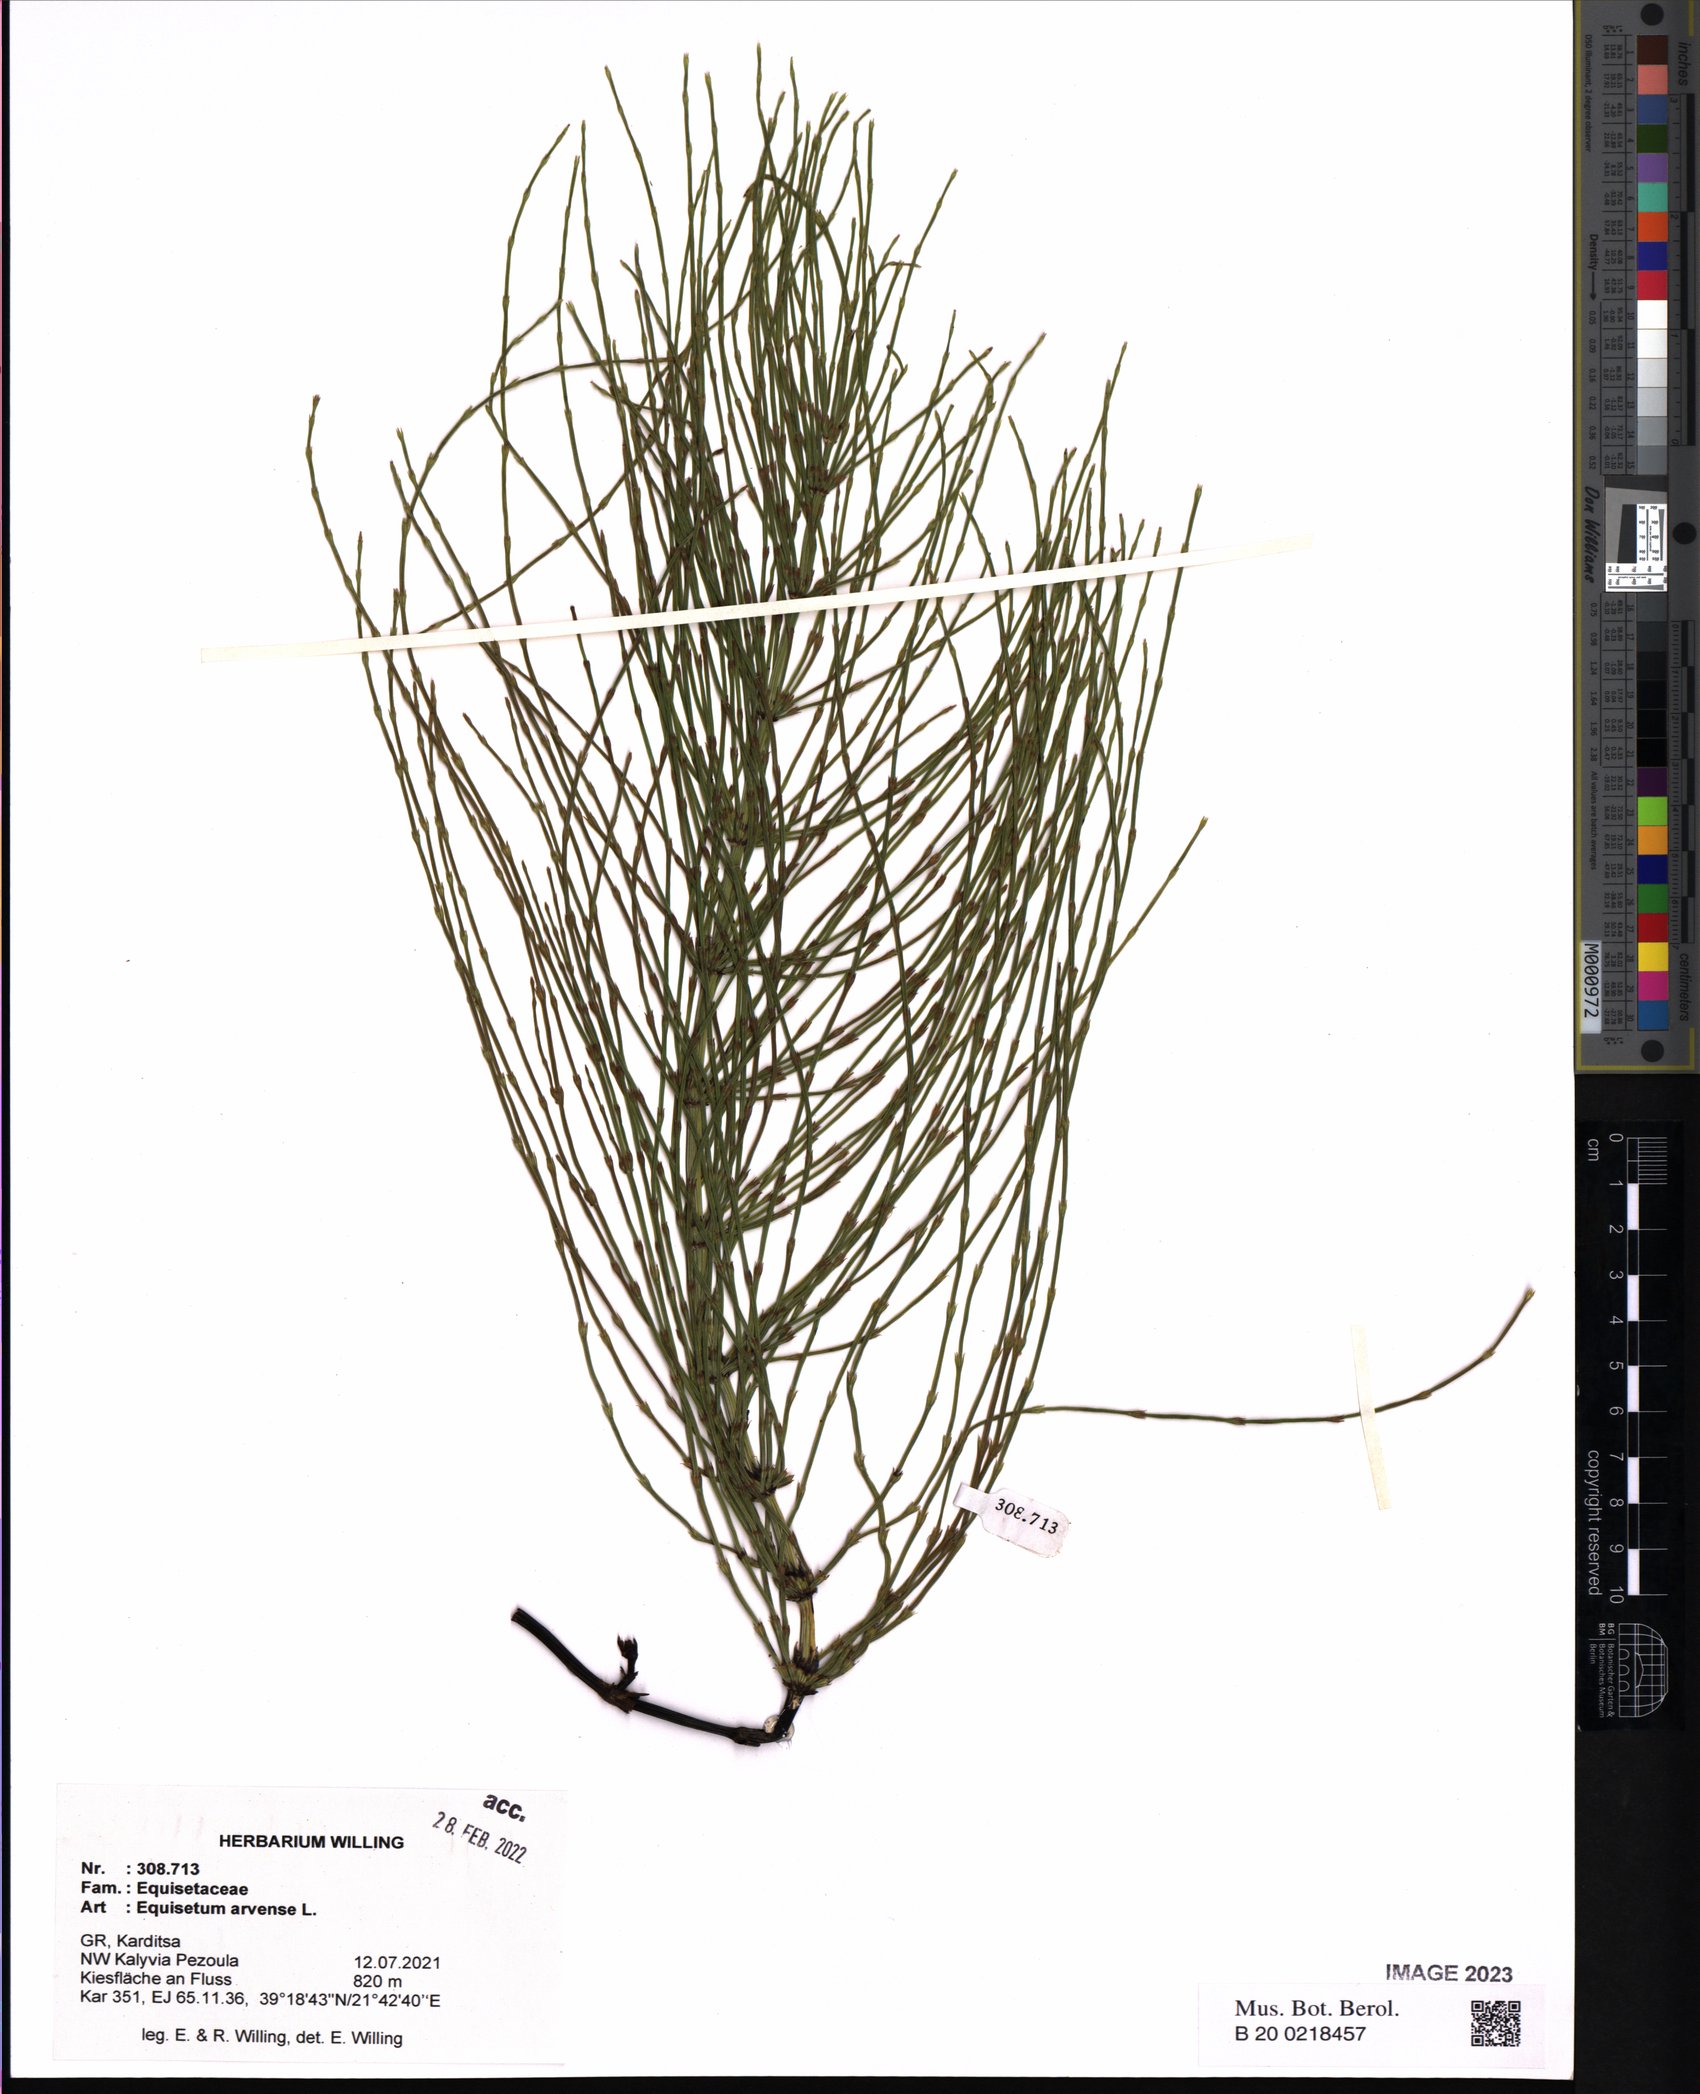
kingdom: Plantae
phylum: Tracheophyta
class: Polypodiopsida
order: Equisetales
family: Equisetaceae
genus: Equisetum
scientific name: Equisetum arvense
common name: Field horsetail
